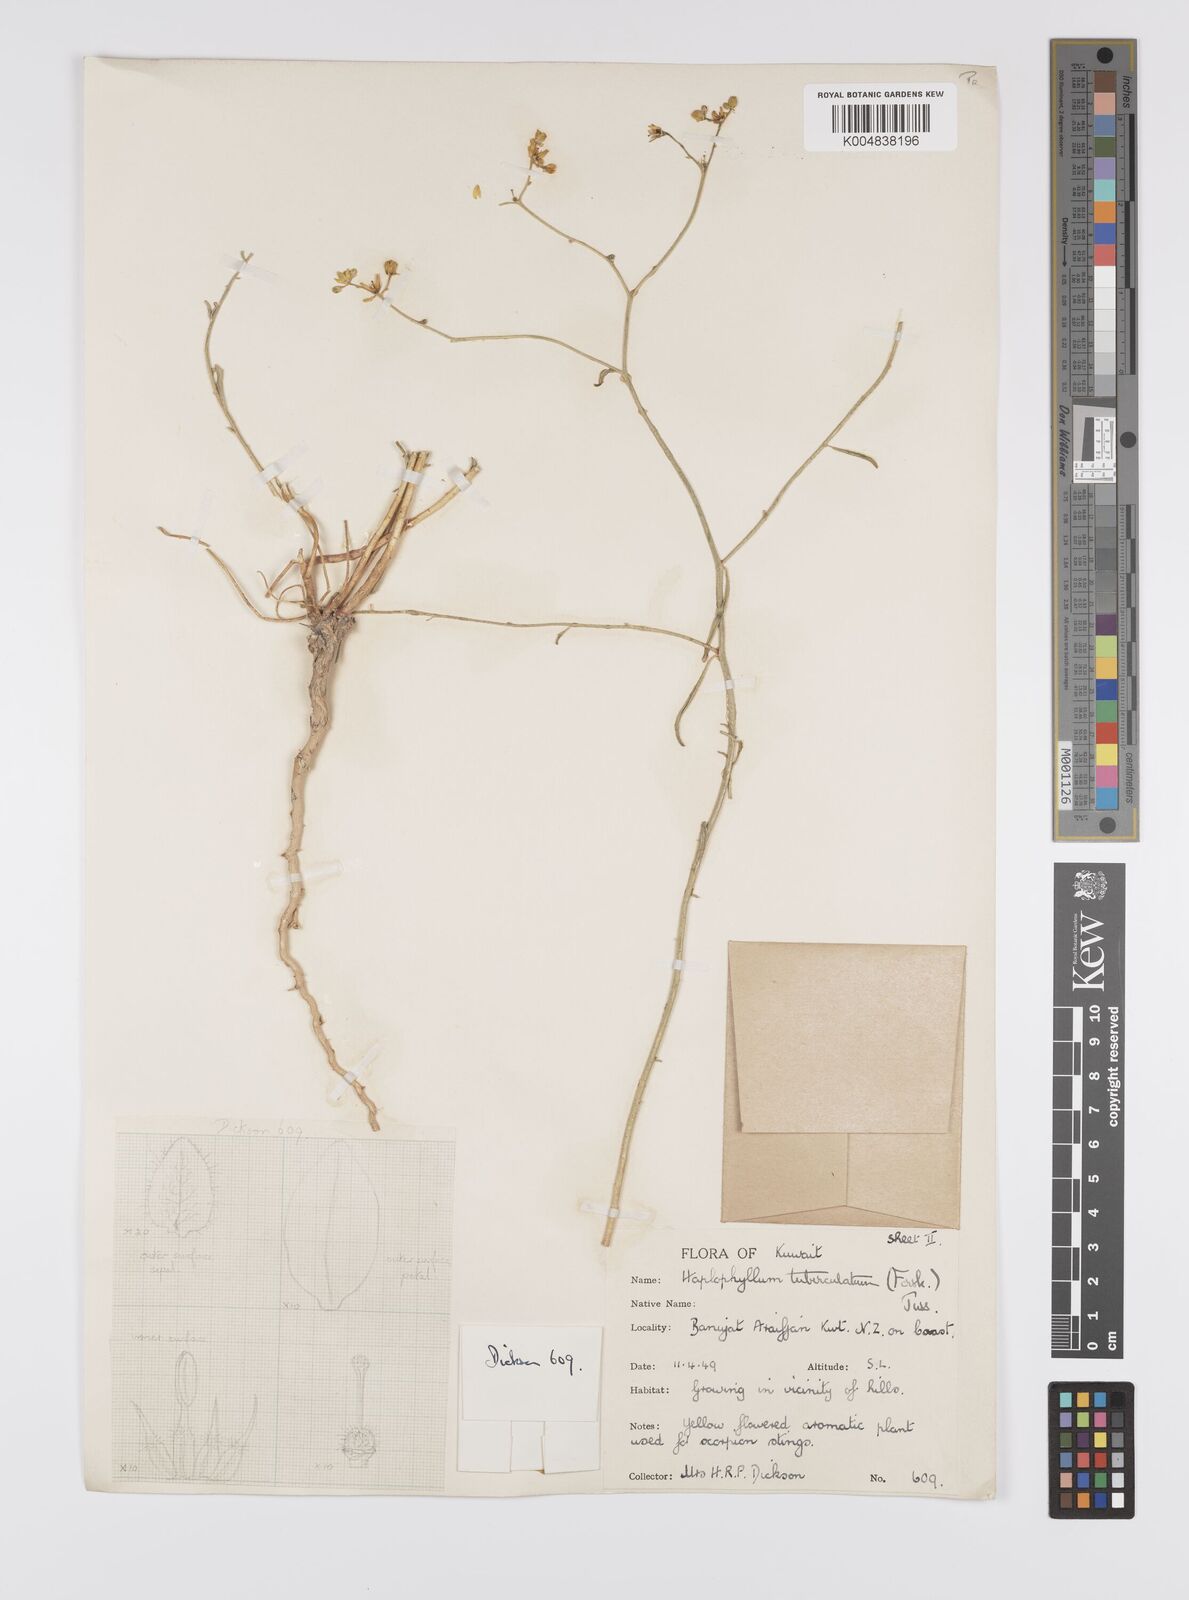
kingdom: Plantae
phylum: Tracheophyta
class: Magnoliopsida
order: Sapindales
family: Rutaceae
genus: Haplophyllum
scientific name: Haplophyllum tuberculatum
